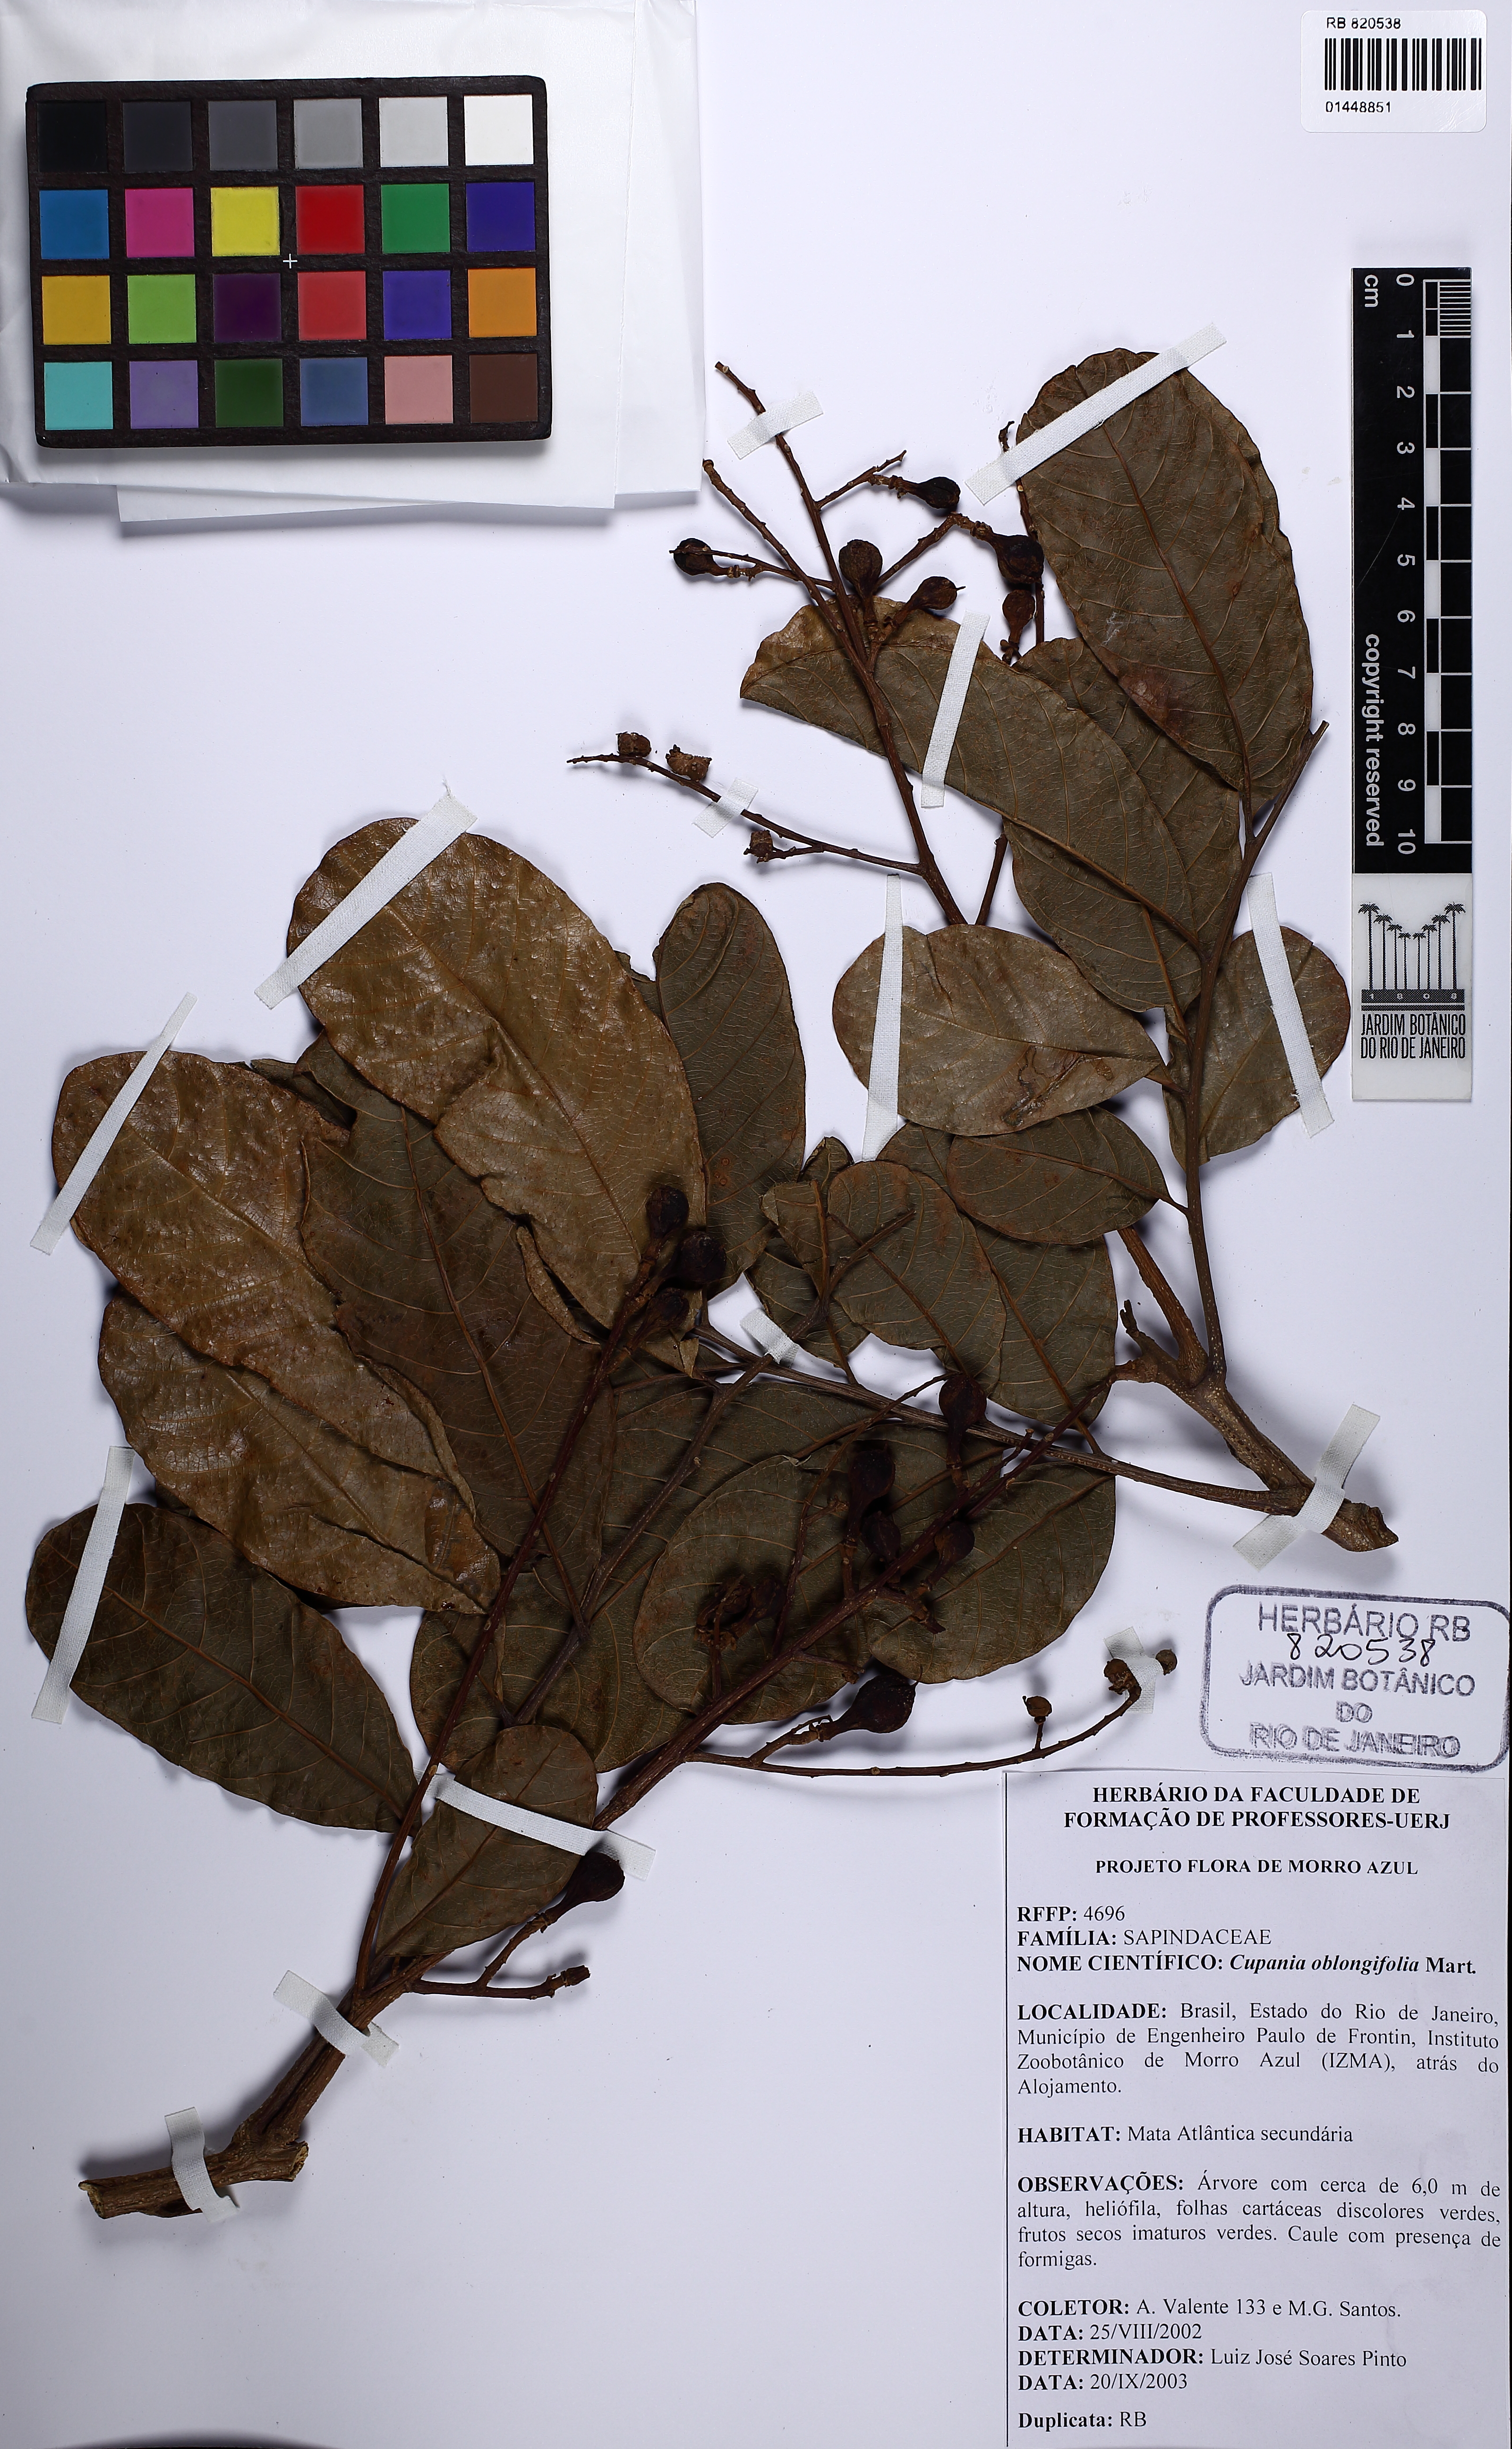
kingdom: Plantae
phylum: Tracheophyta
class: Magnoliopsida
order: Sapindales
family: Sapindaceae
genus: Cupania
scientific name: Cupania oblongifolia
